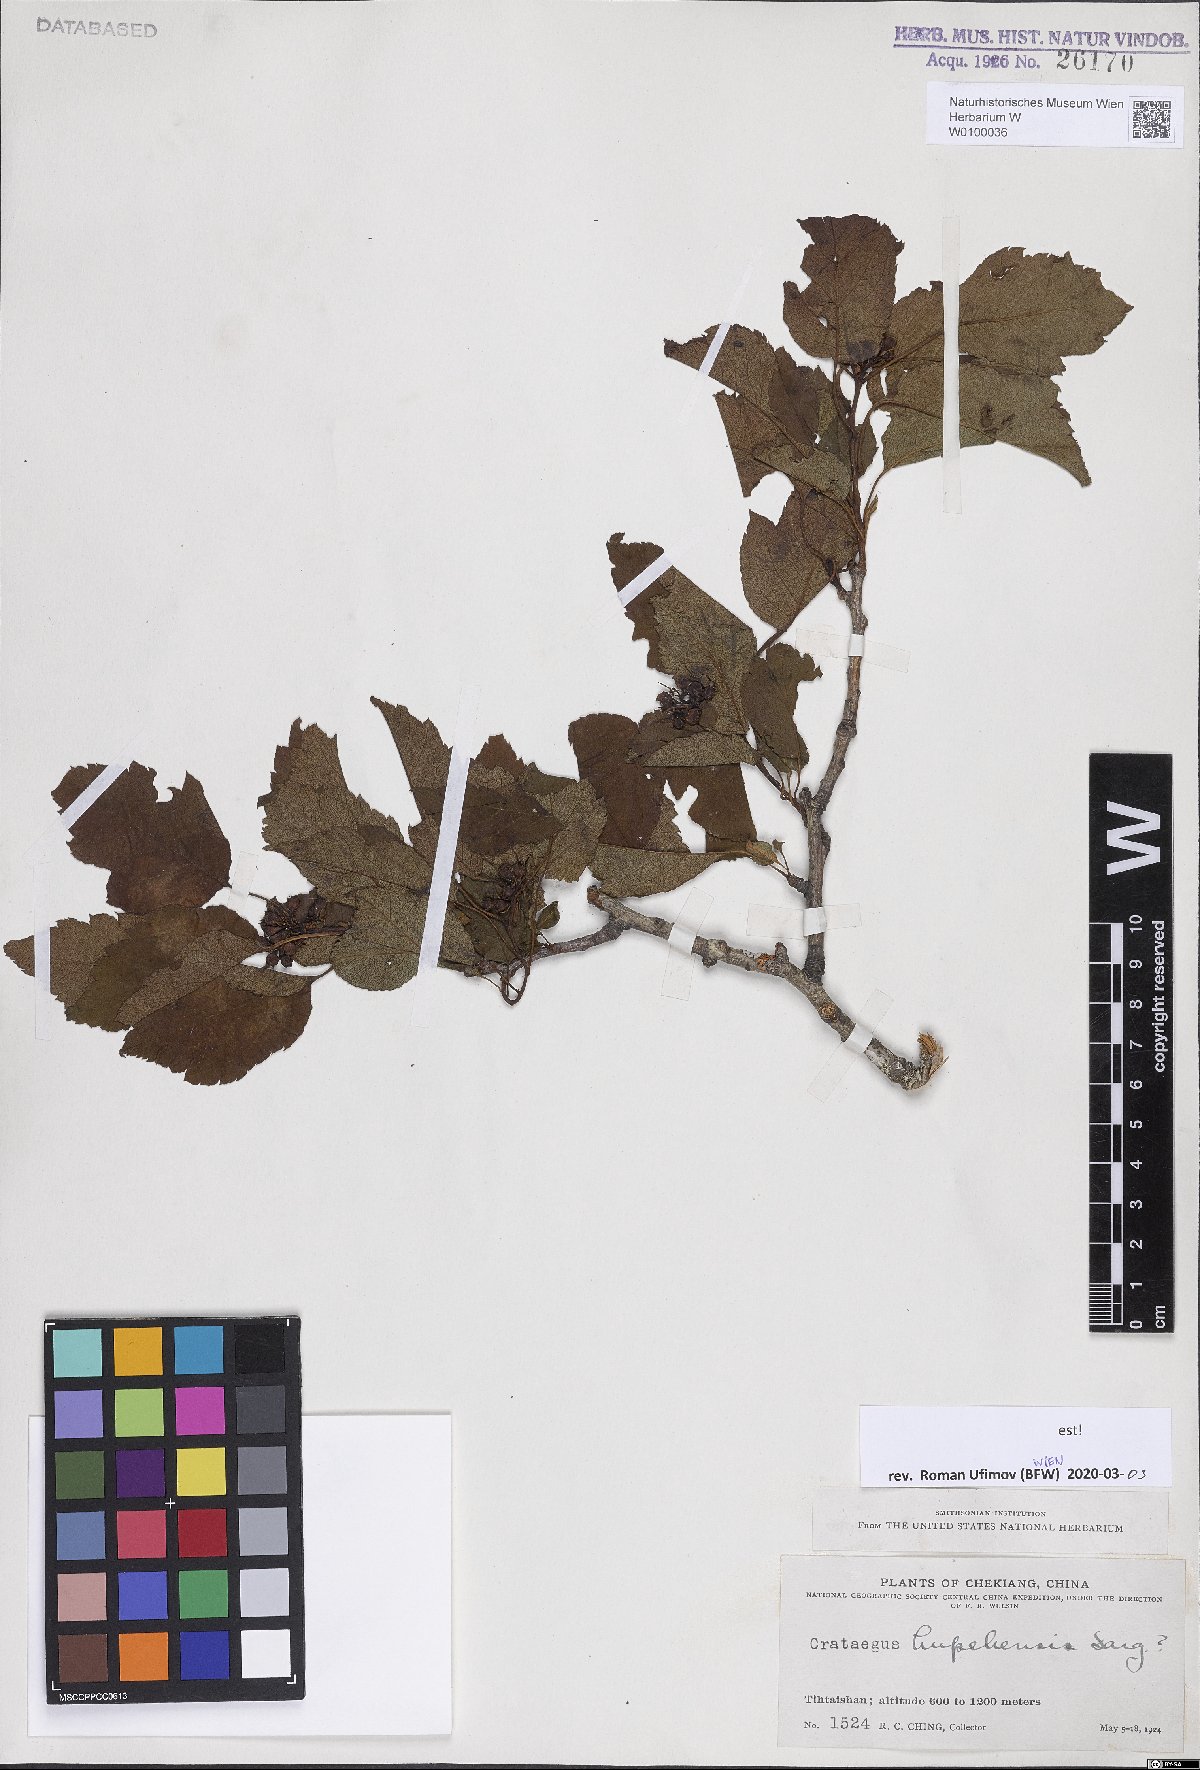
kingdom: Plantae
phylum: Tracheophyta
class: Magnoliopsida
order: Rosales
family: Rosaceae
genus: Crataegus
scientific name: Crataegus hupehensis
